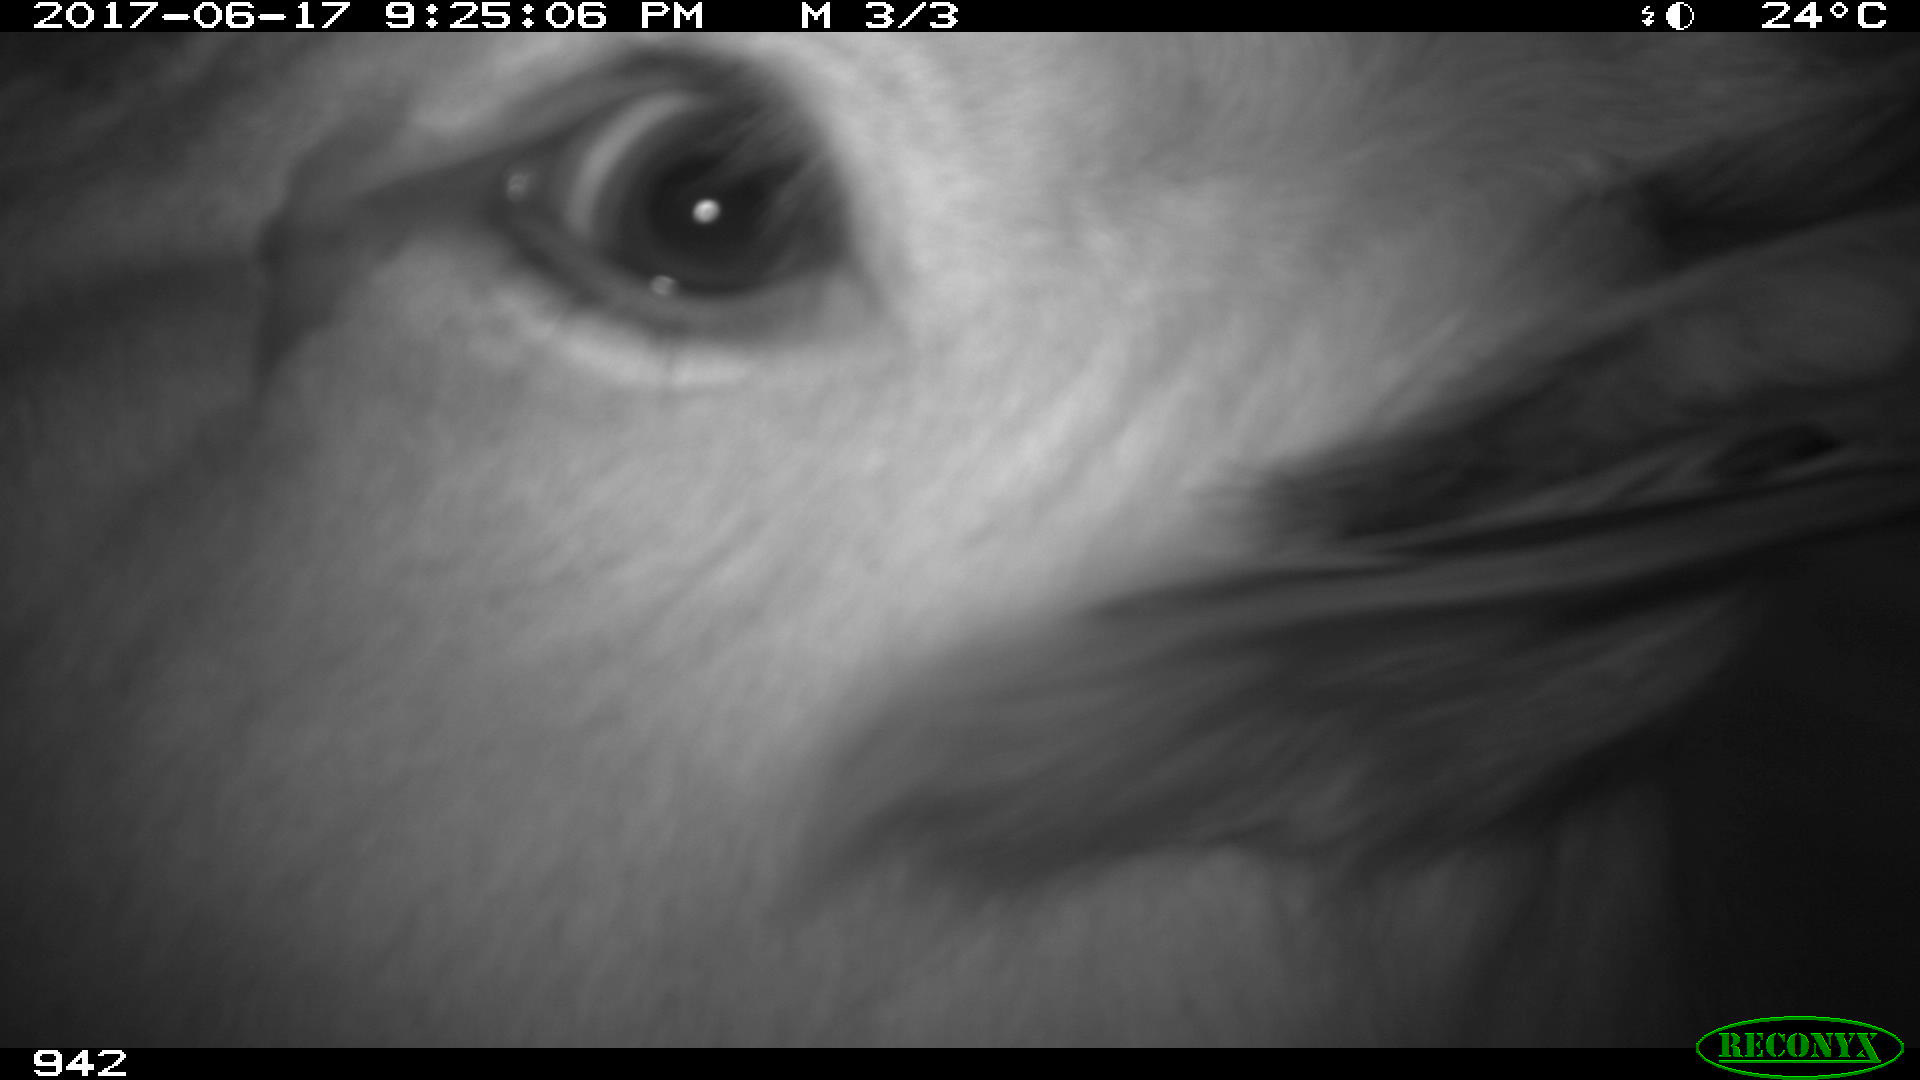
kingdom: Animalia
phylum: Chordata
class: Mammalia
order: Artiodactyla
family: Bovidae
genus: Bos
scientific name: Bos taurus
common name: Domesticated cattle
